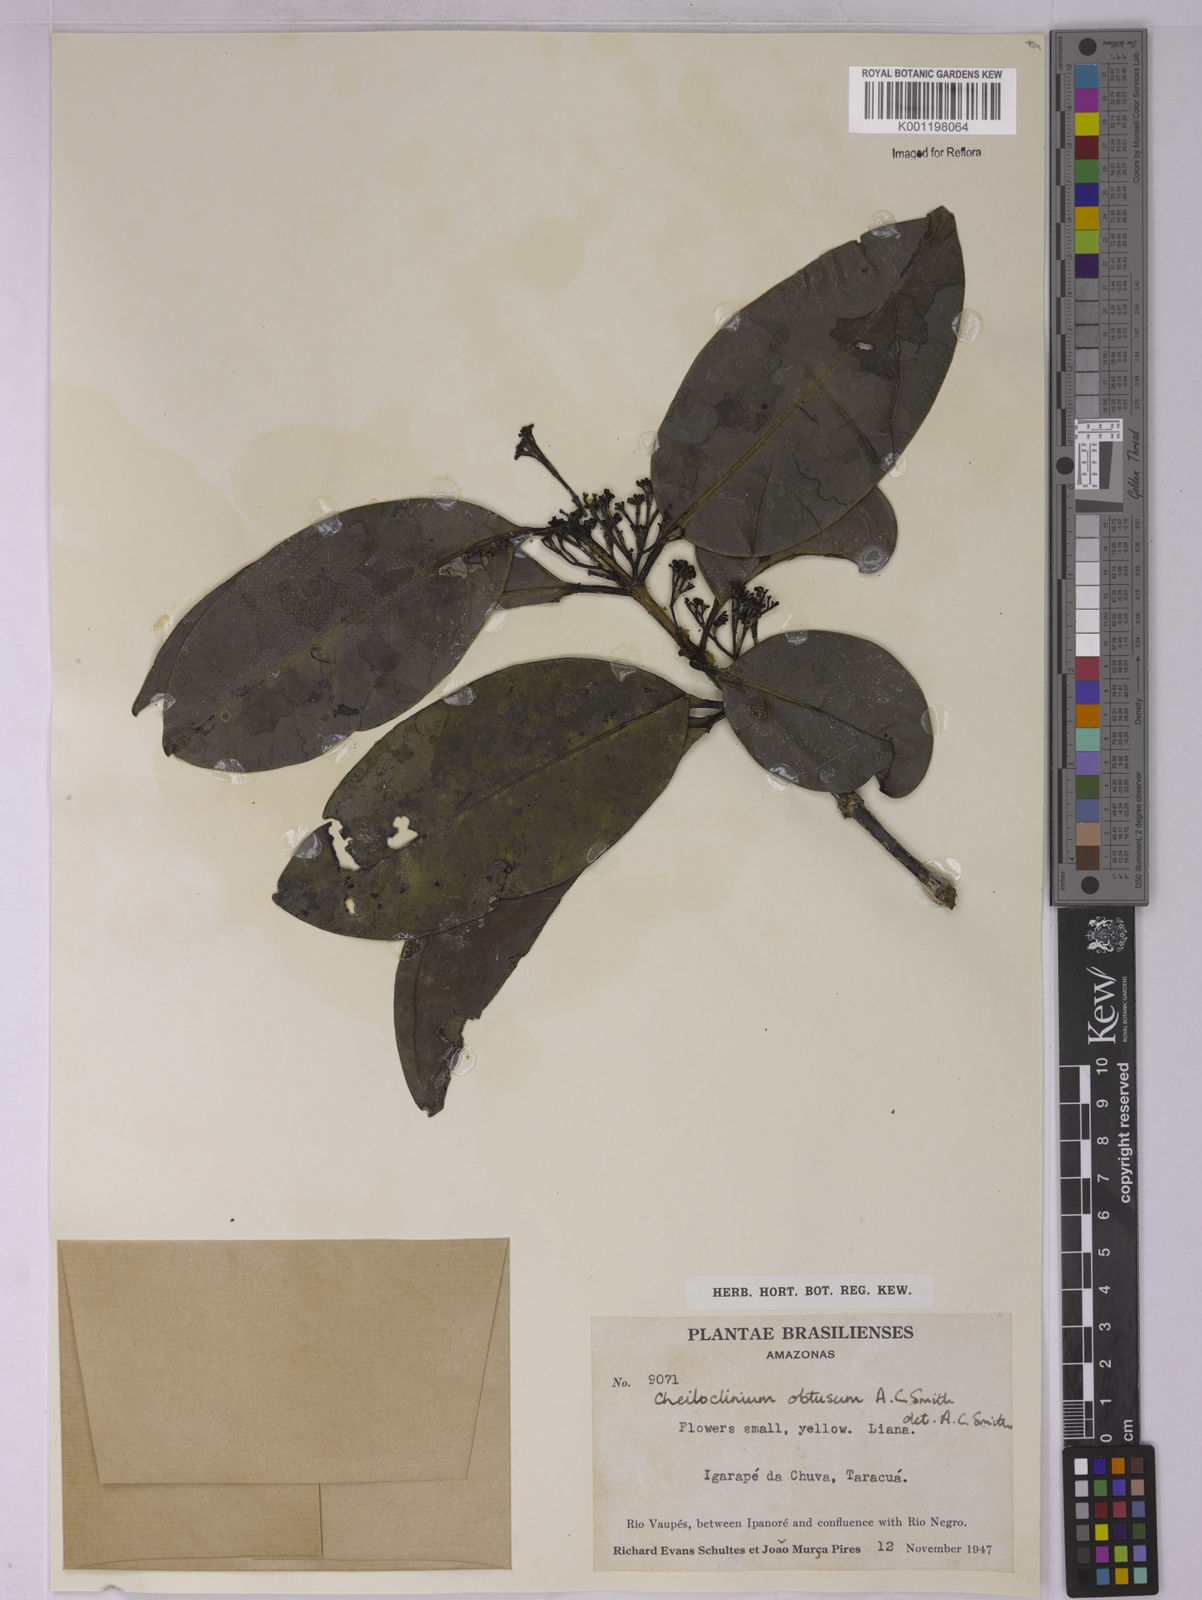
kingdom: Plantae
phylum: Tracheophyta
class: Magnoliopsida
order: Celastrales
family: Celastraceae
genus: Cheiloclinium
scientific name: Cheiloclinium obtusum
